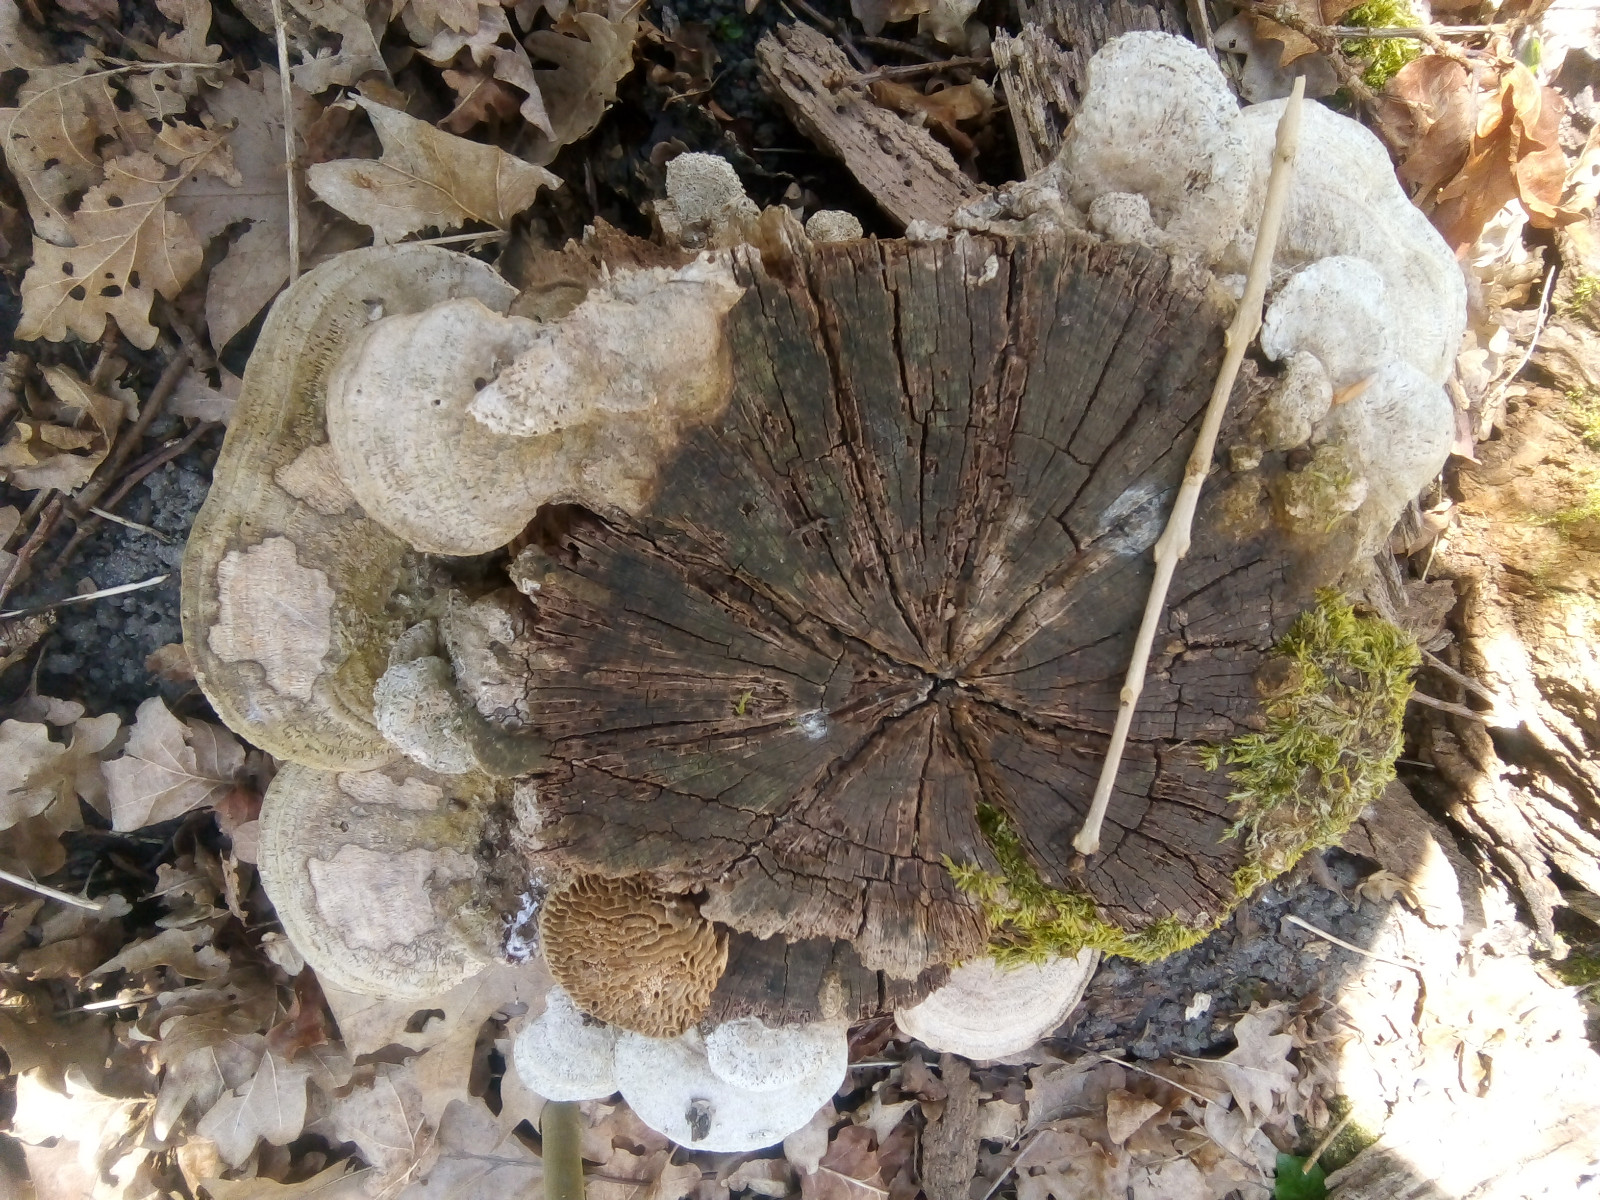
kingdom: Fungi
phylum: Basidiomycota
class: Agaricomycetes
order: Polyporales
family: Fomitopsidaceae
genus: Daedalea
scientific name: Daedalea quercina
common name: ege-labyrintsvamp
